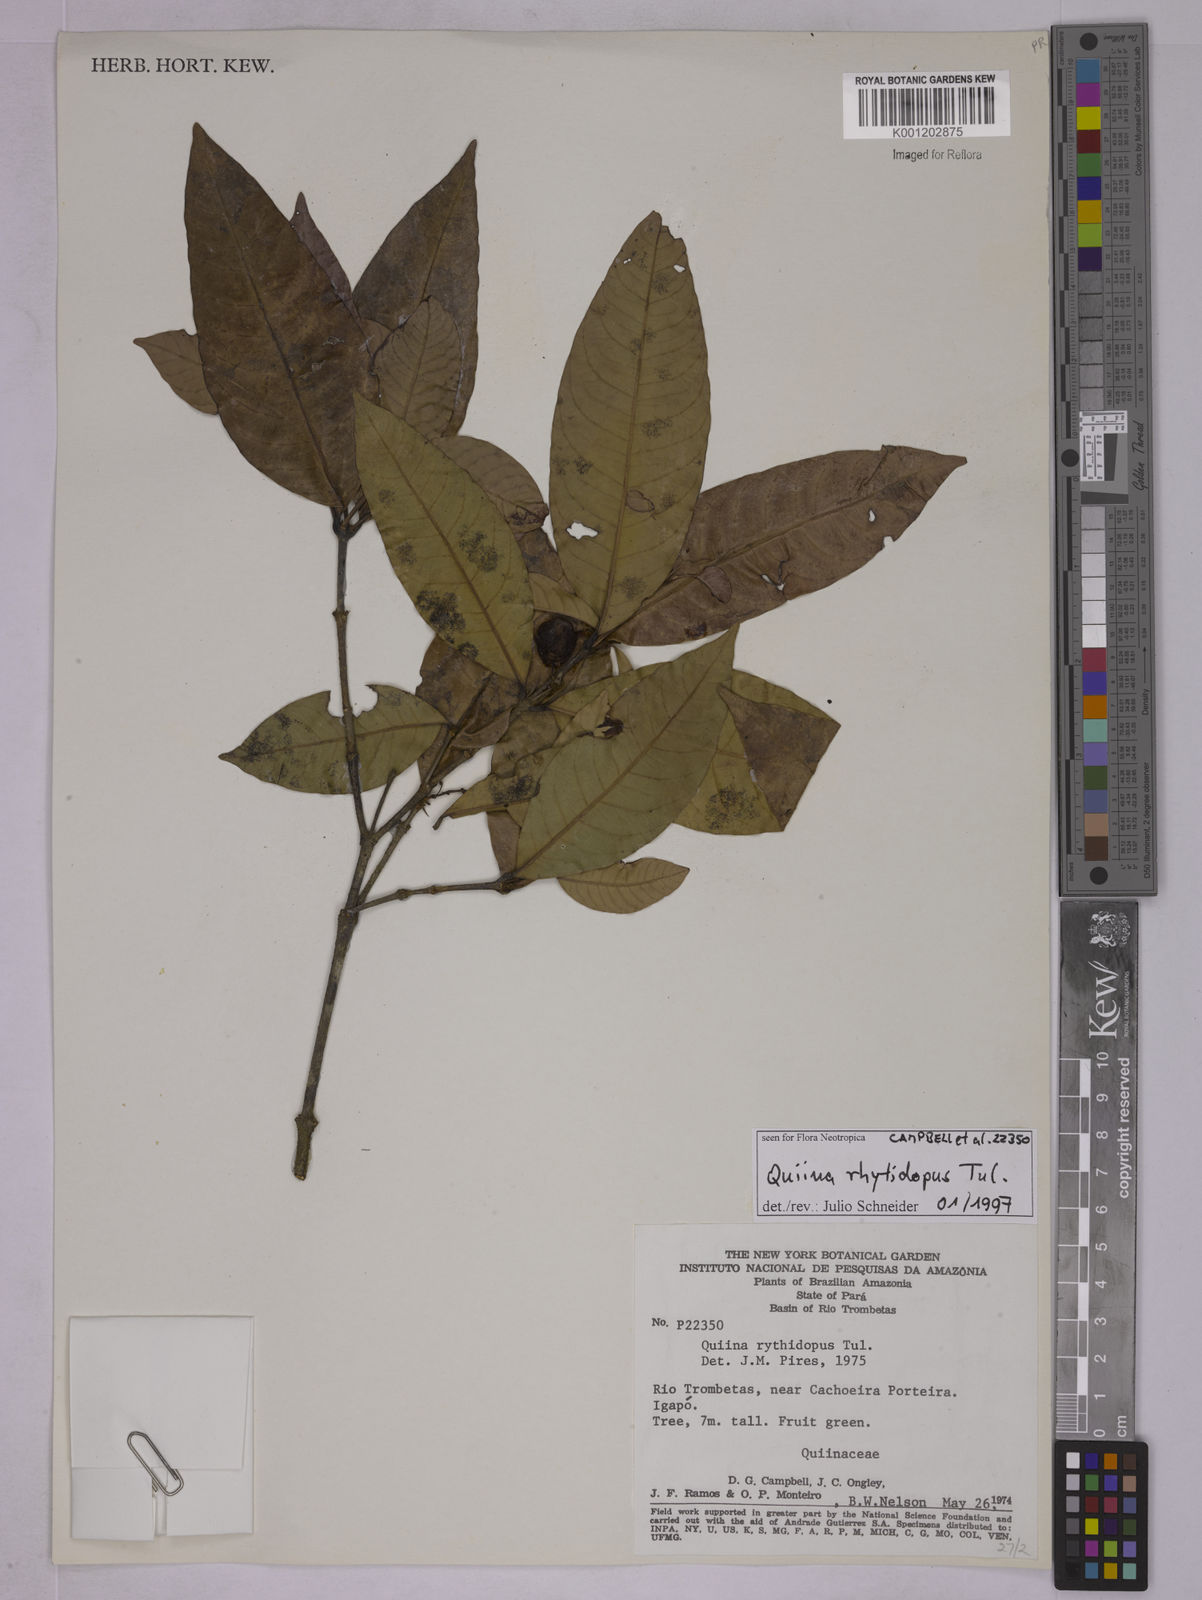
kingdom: Plantae
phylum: Tracheophyta
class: Magnoliopsida
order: Malpighiales
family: Quiinaceae
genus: Quiina
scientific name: Quiina rhytidopus
